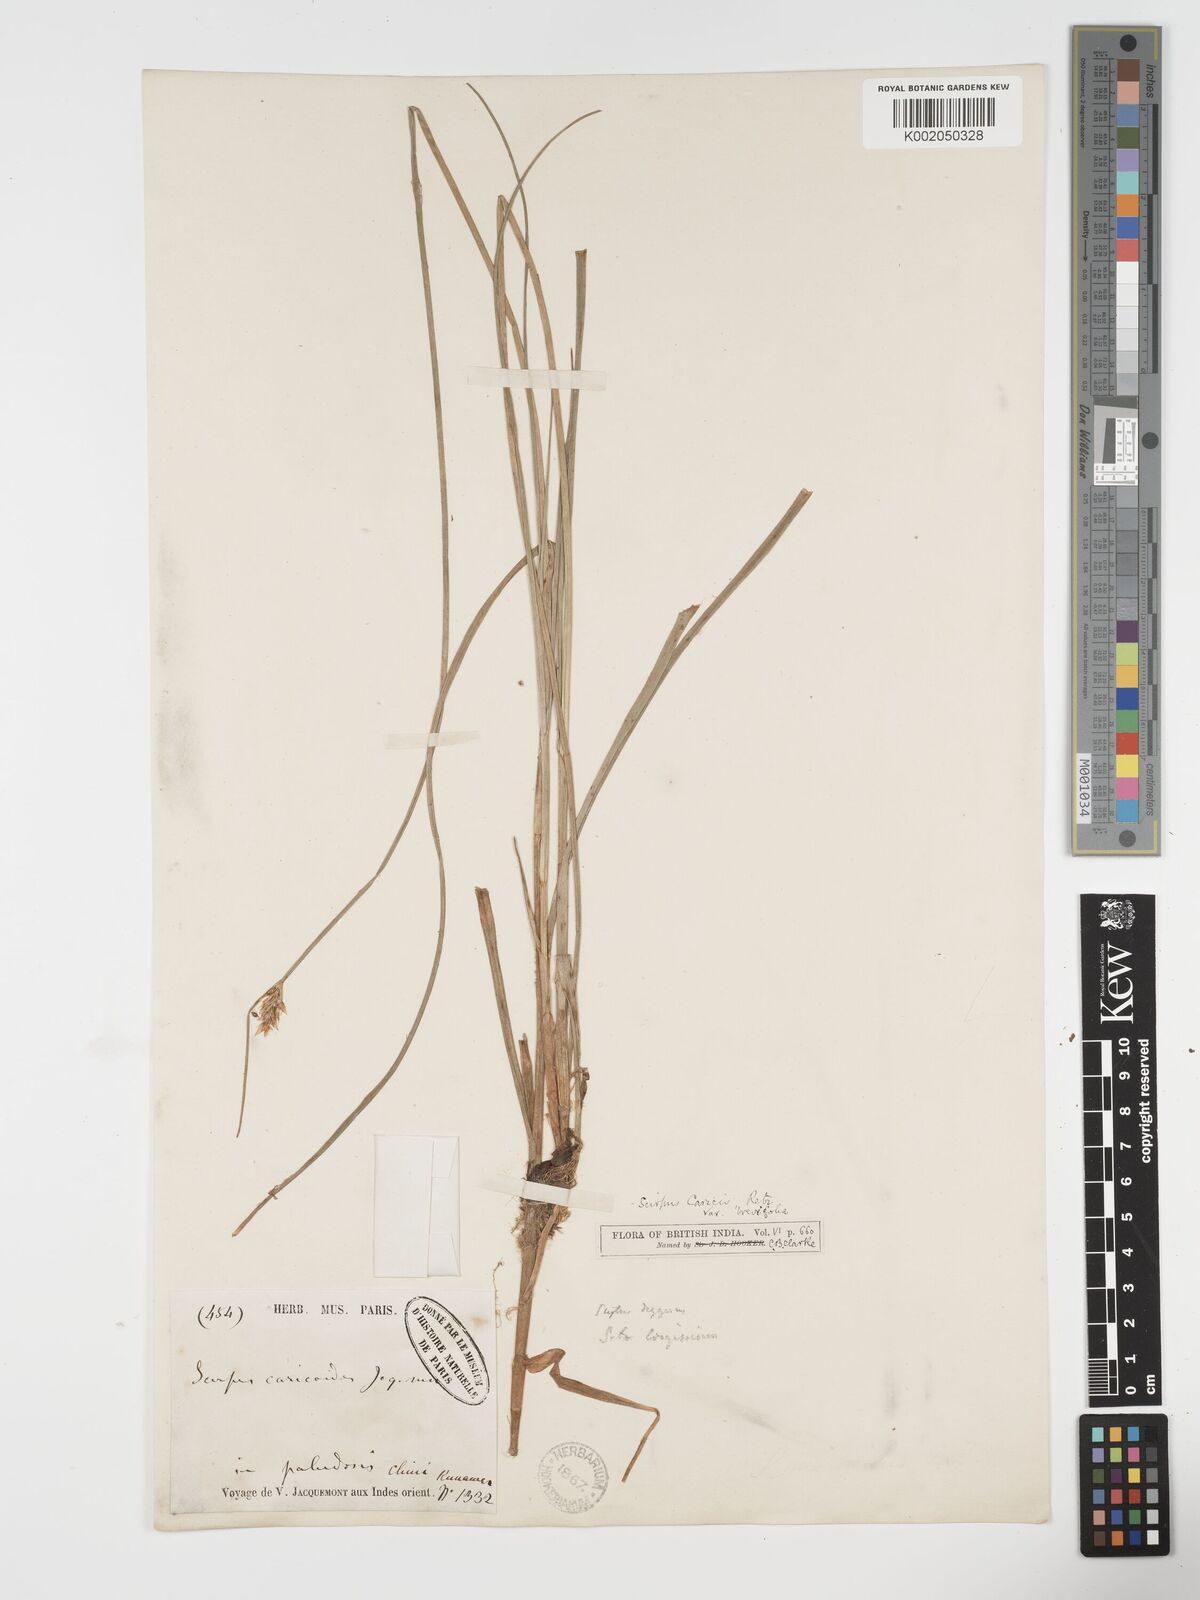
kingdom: Plantae
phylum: Tracheophyta
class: Liliopsida
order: Poales
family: Cyperaceae
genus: Blysmus
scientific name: Blysmus compressus
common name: Flat-sedge
